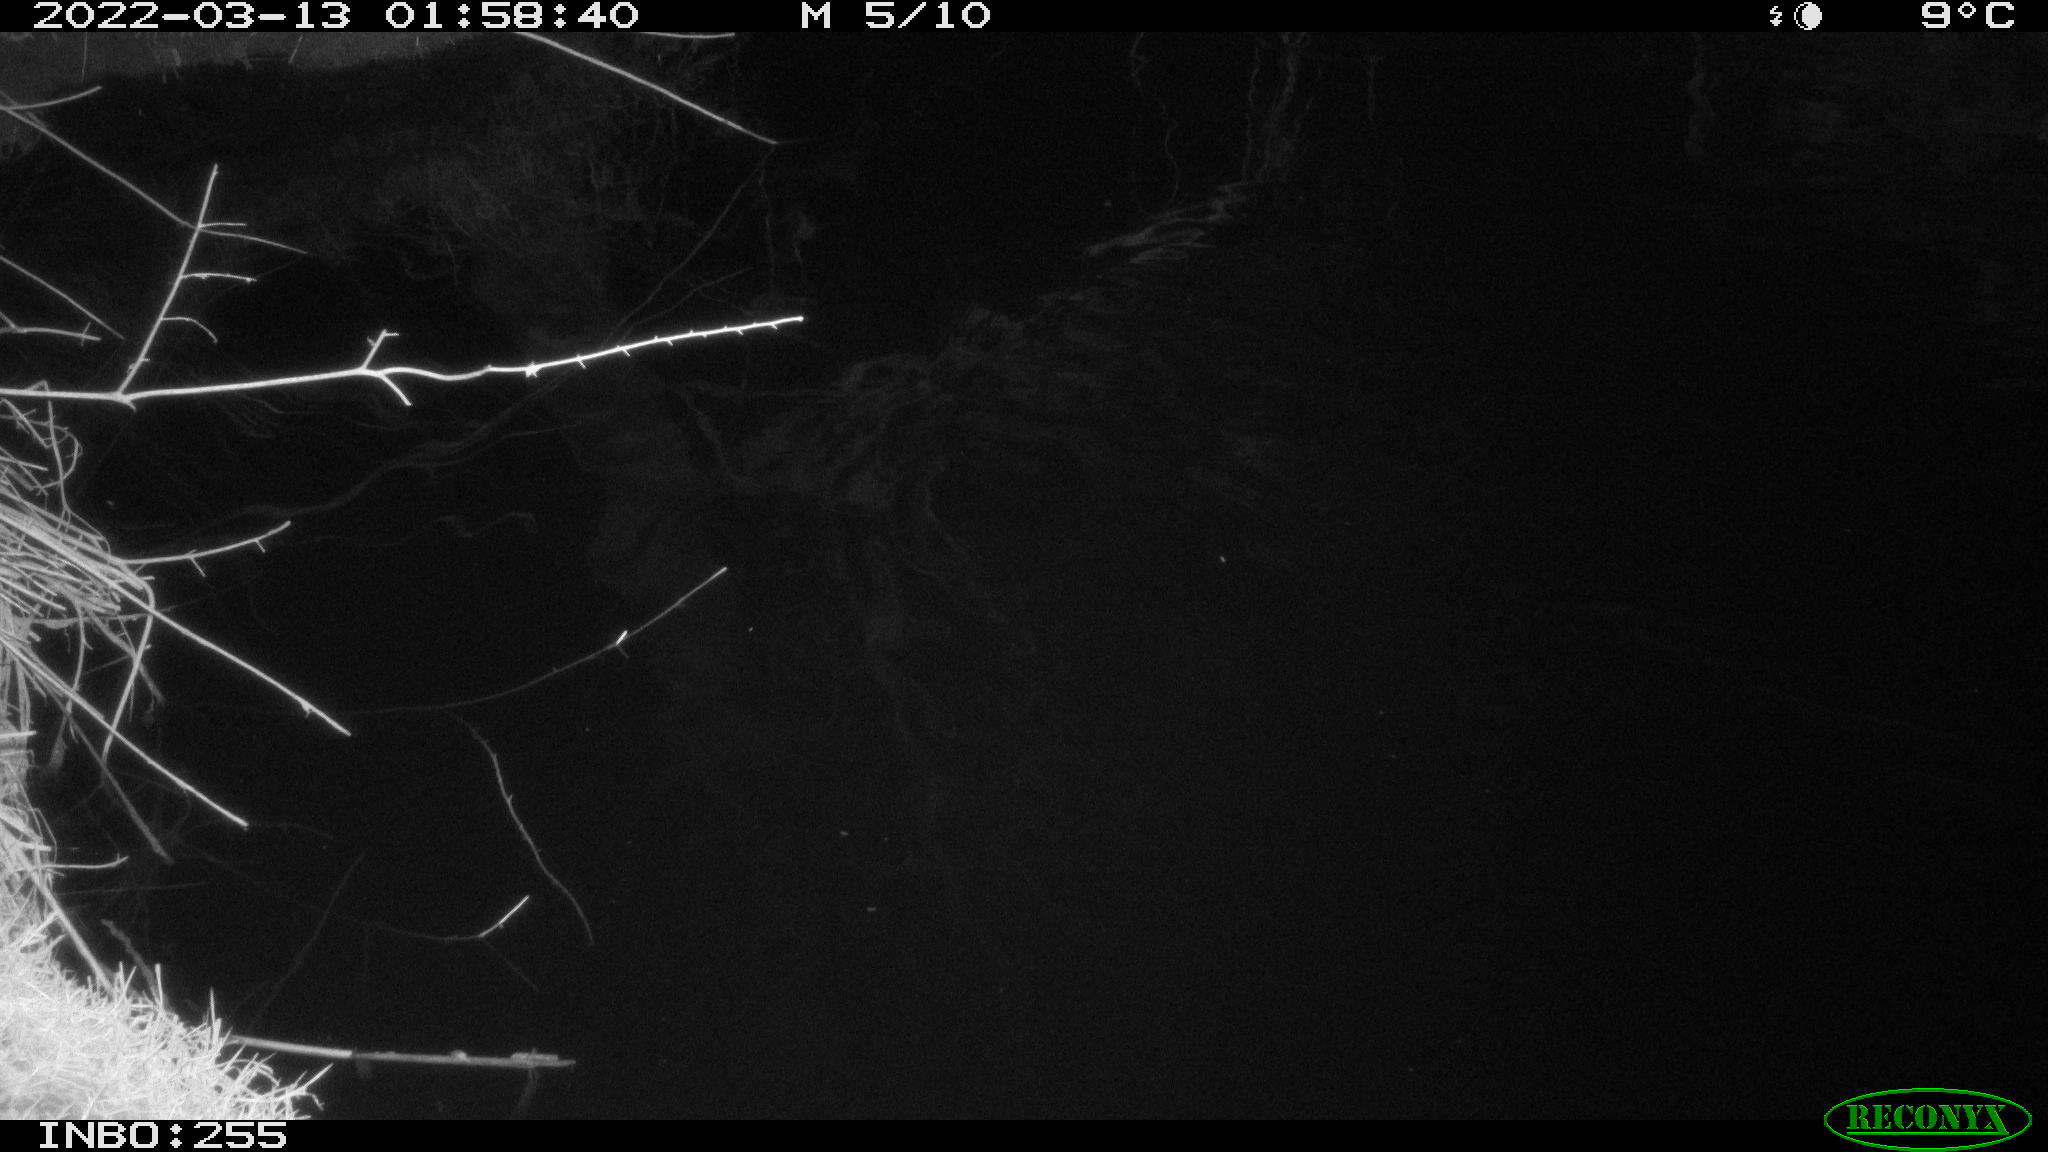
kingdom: Animalia
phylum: Chordata
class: Aves
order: Anseriformes
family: Anatidae
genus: Anas
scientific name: Anas platyrhynchos
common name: Mallard
